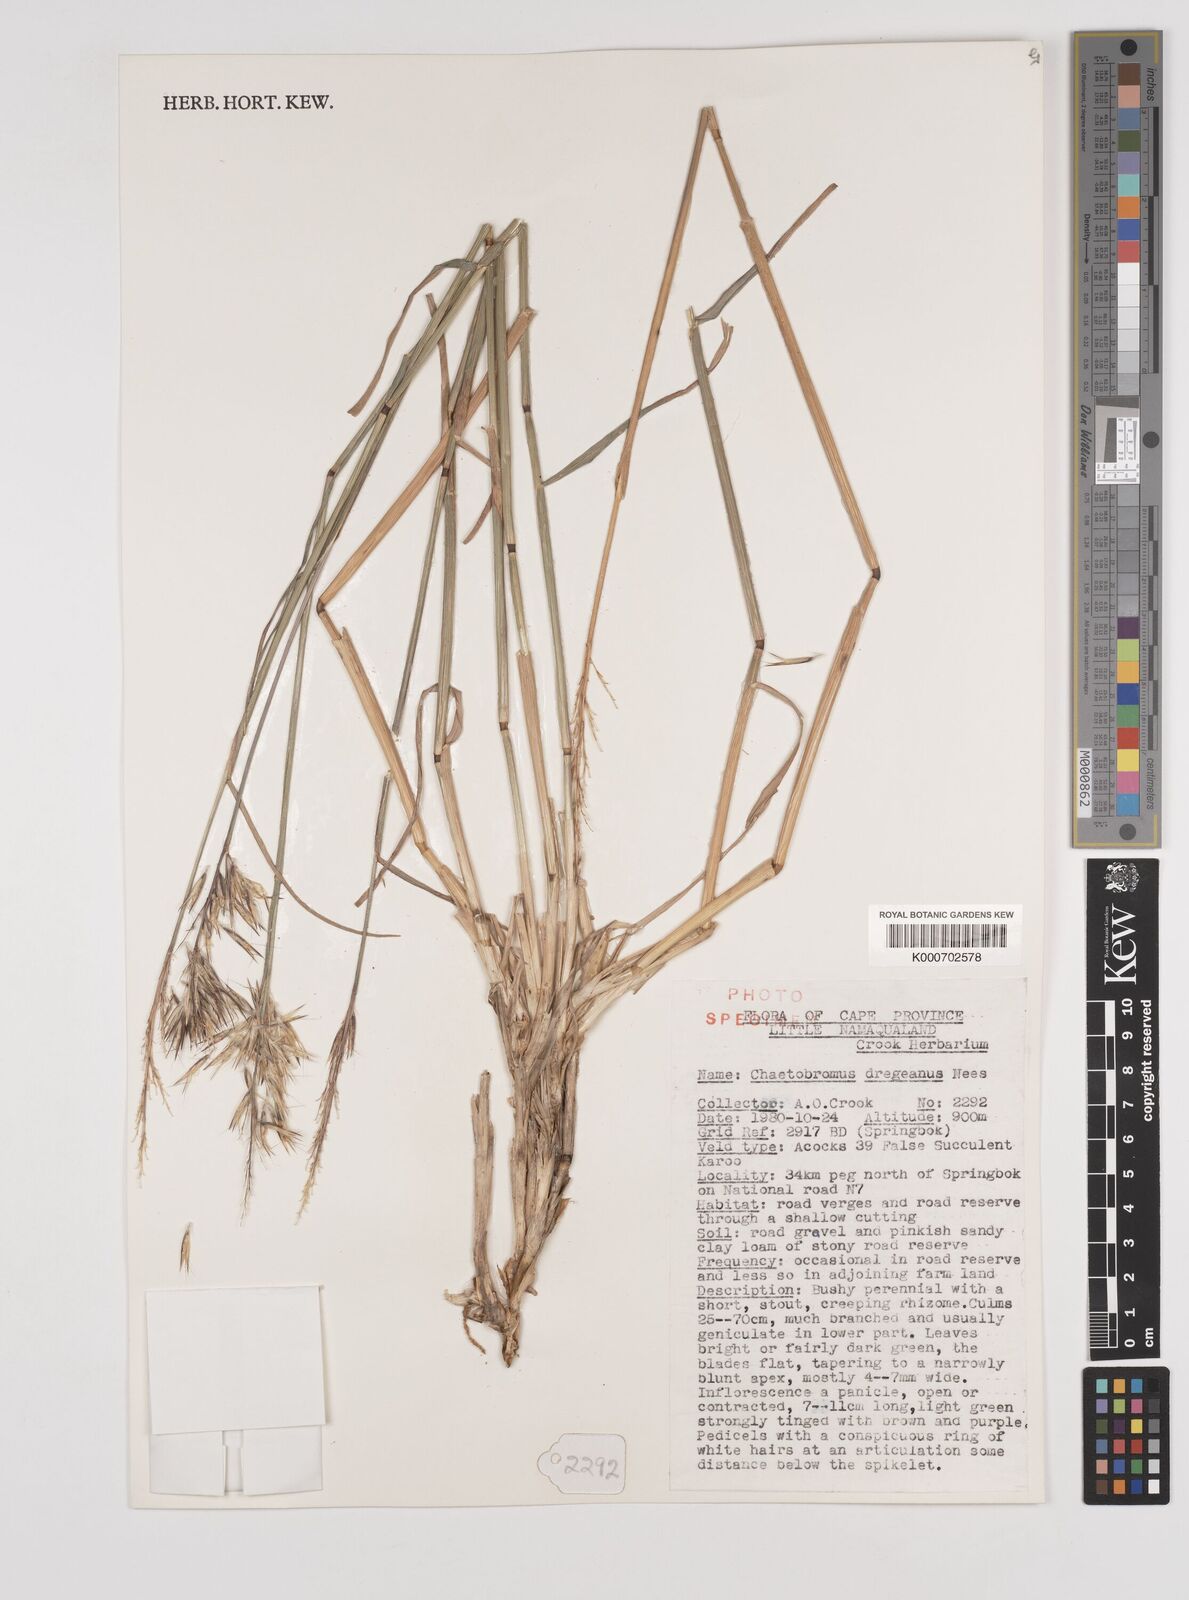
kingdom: Plantae
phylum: Tracheophyta
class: Liliopsida
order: Poales
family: Poaceae
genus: Chaetobromus
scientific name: Chaetobromus involucratus
